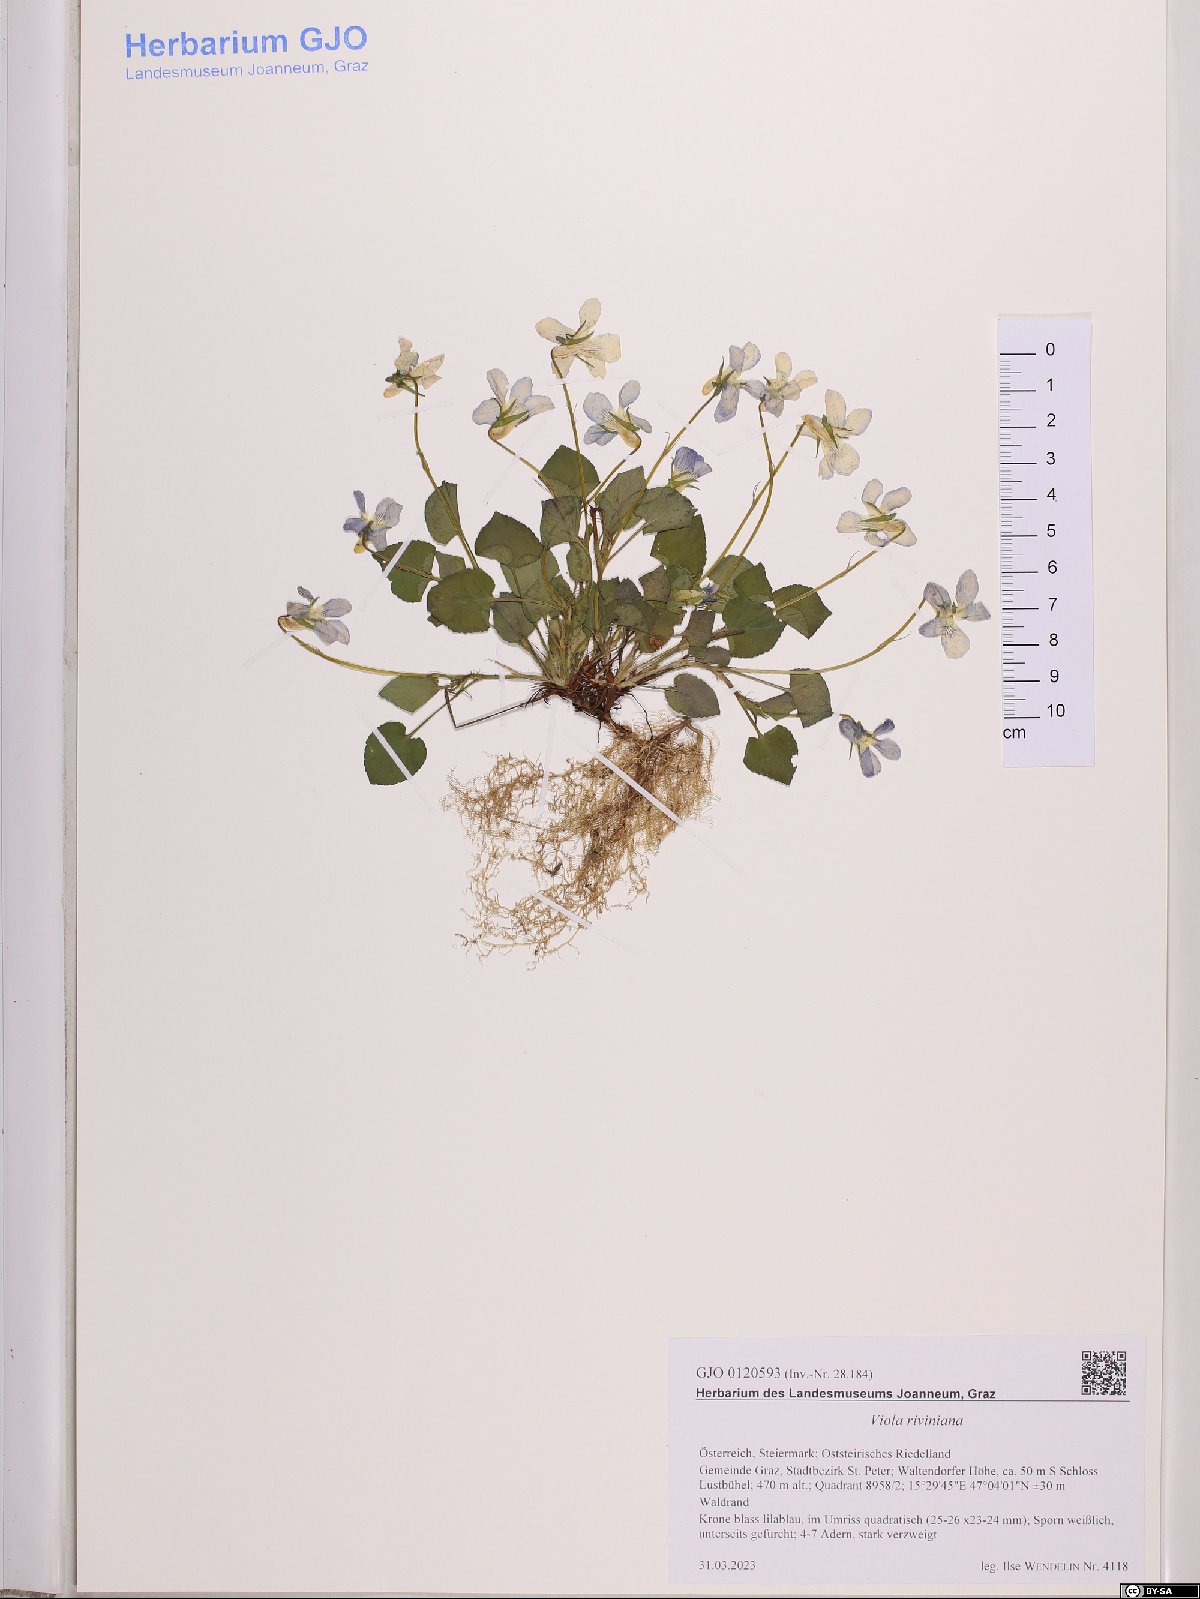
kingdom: Plantae
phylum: Tracheophyta
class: Magnoliopsida
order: Malpighiales
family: Violaceae
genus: Viola
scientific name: Viola riviniana
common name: Common dog-violet
